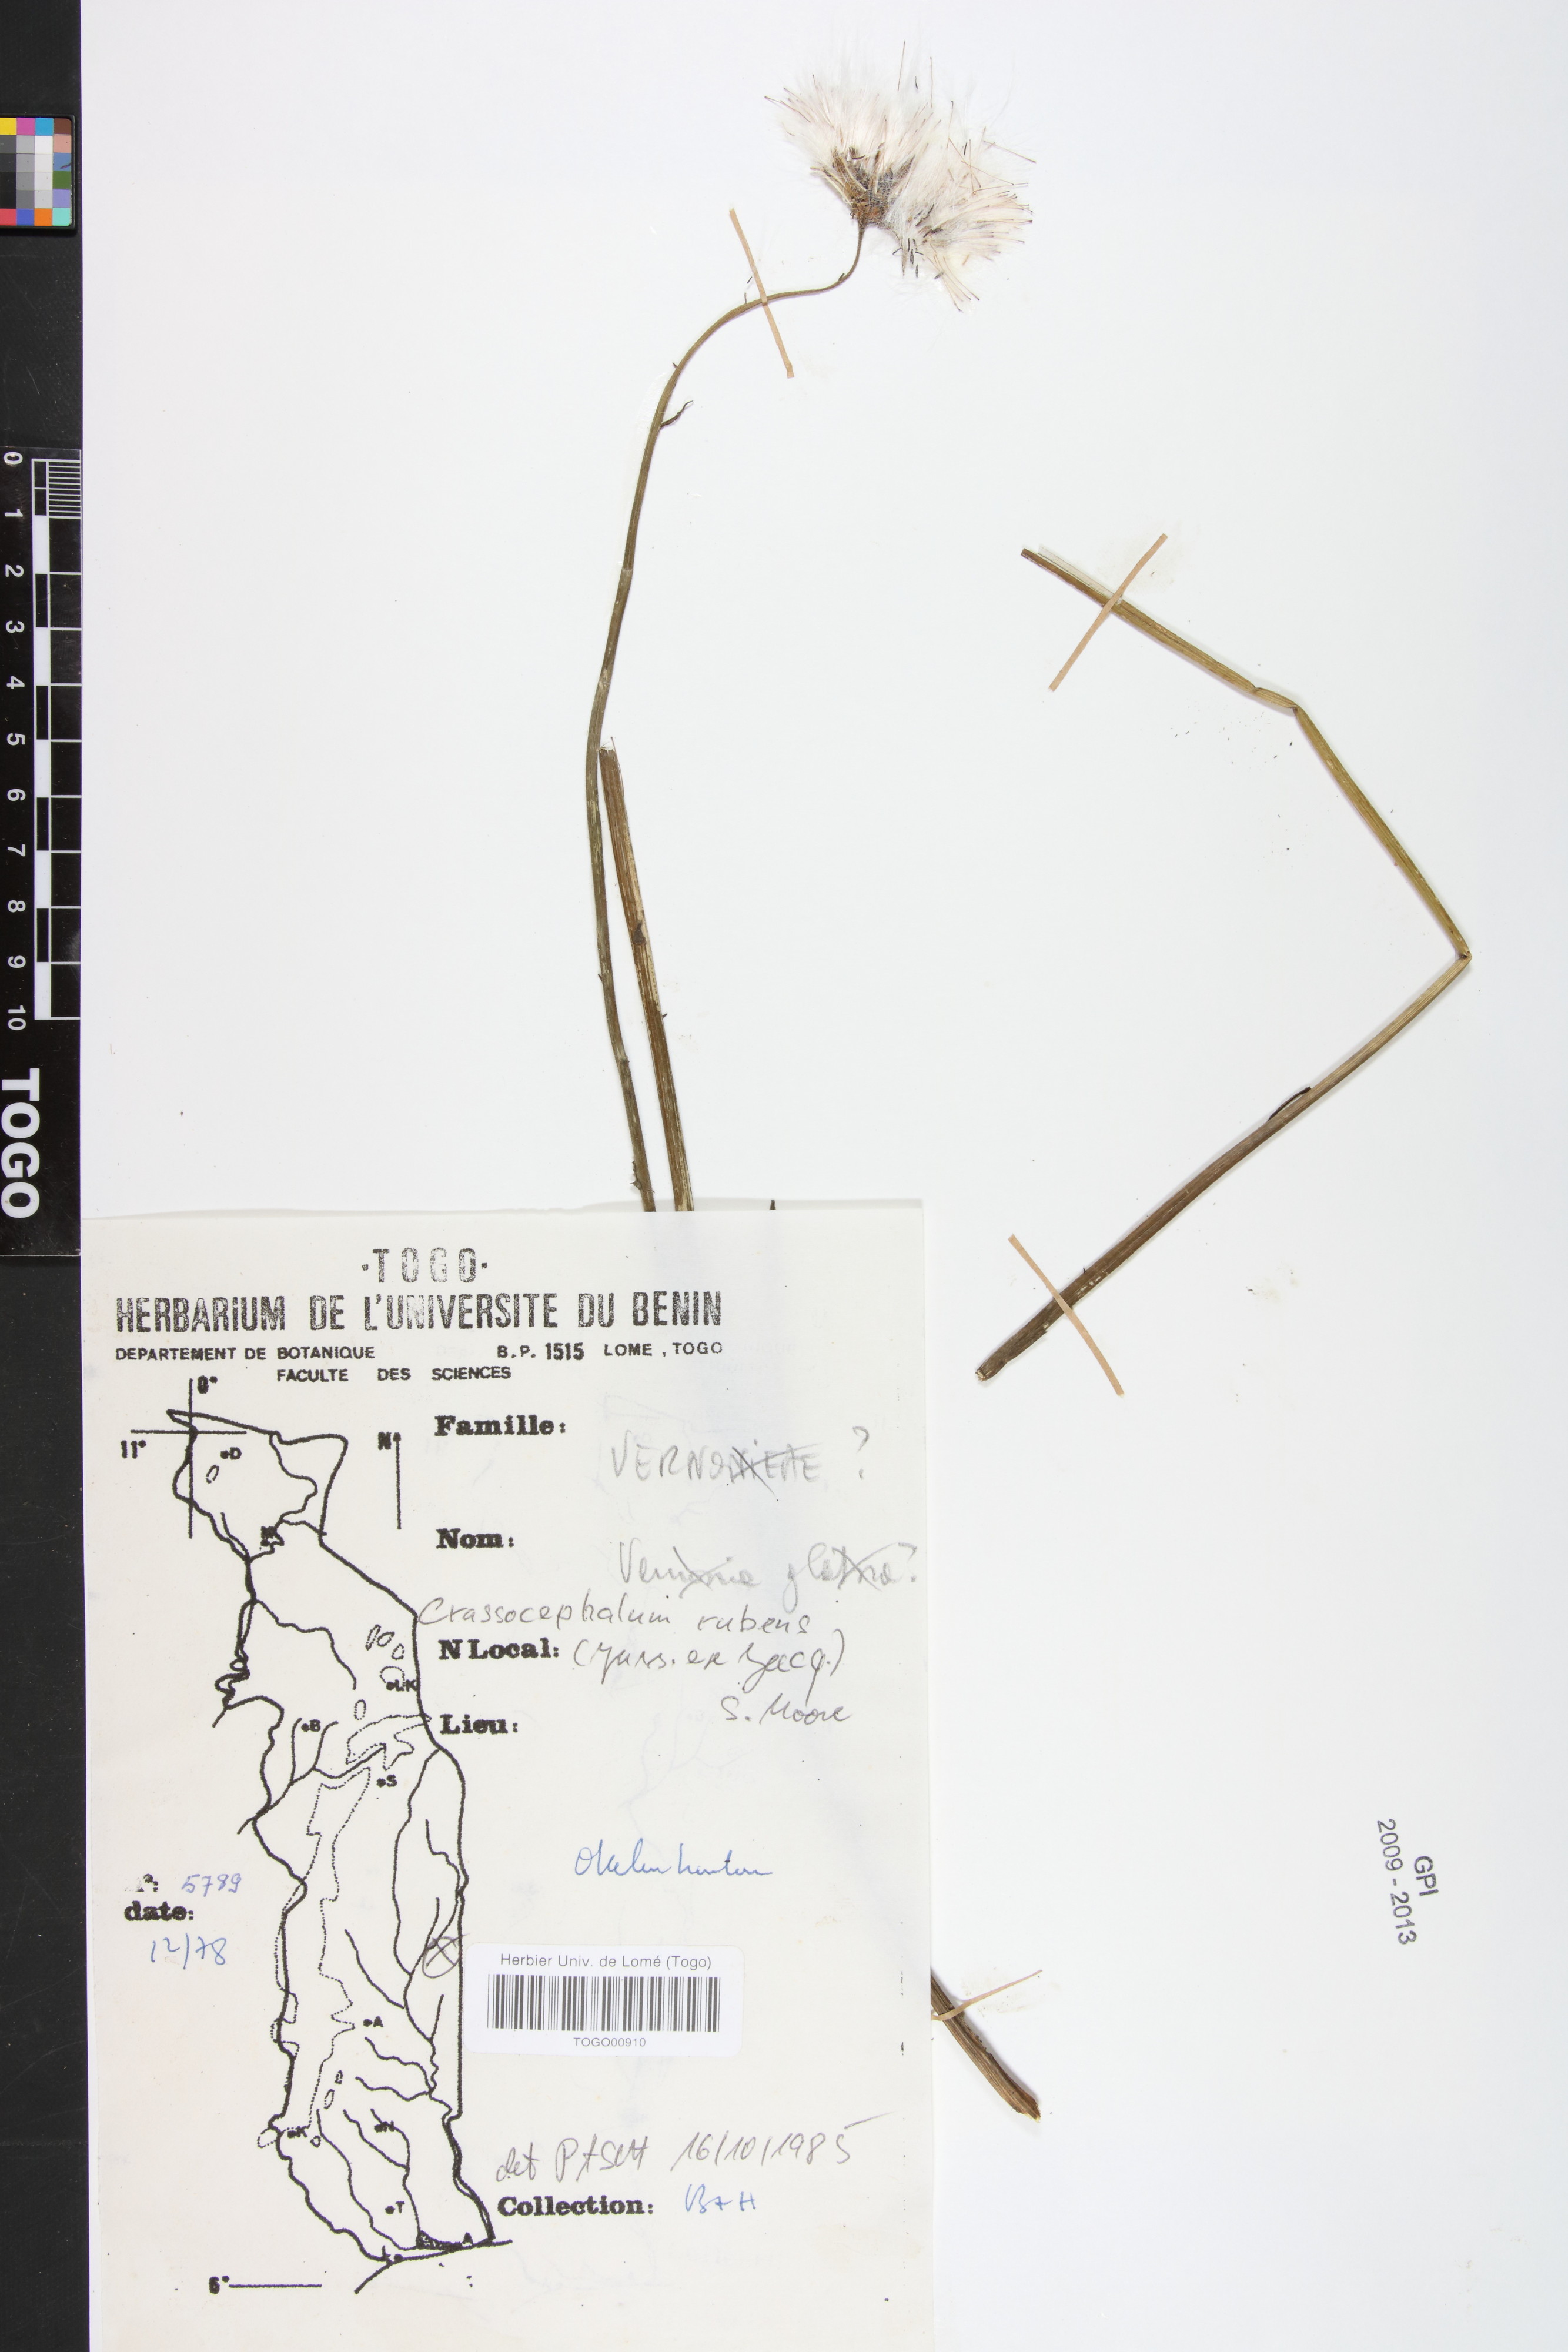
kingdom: Plantae
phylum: Tracheophyta
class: Magnoliopsida
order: Asterales
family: Asteraceae
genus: Crassocephalum
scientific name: Crassocephalum rubens
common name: Yoruban bologi
